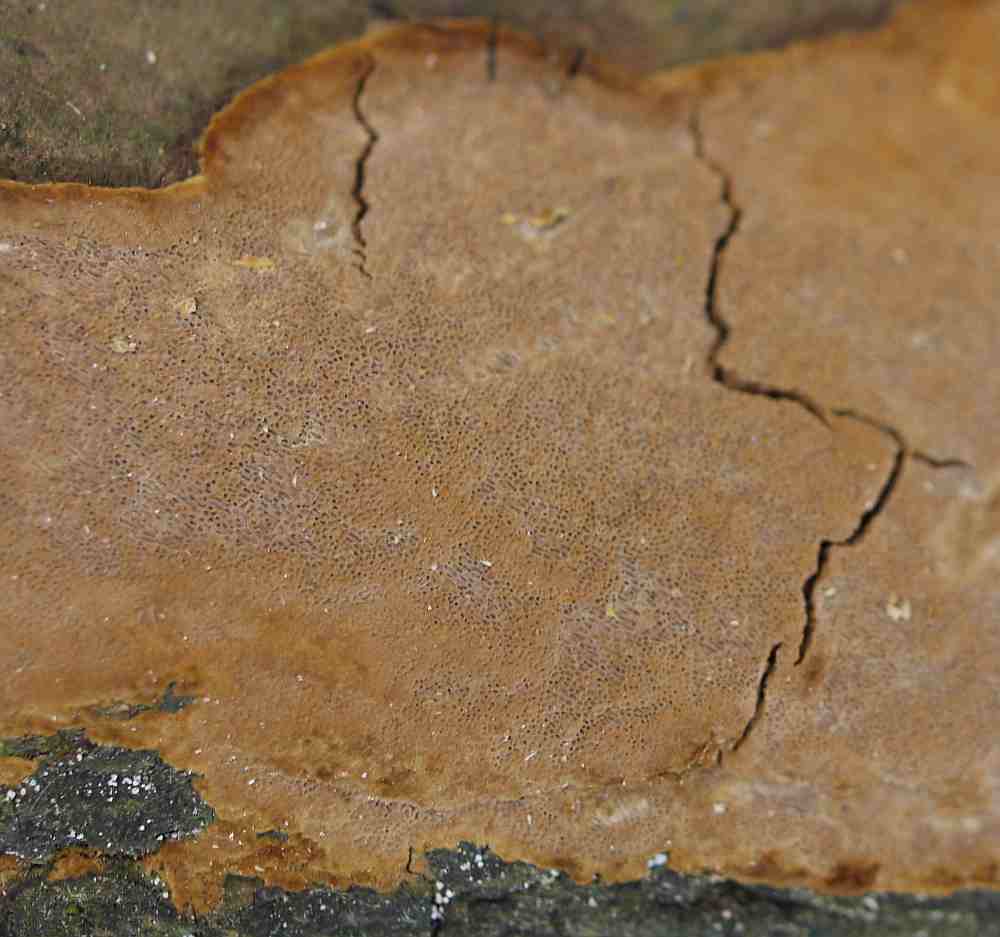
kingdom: Fungi
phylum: Basidiomycota
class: Agaricomycetes
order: Hymenochaetales
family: Hymenochaetaceae
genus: Fuscoporia
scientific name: Fuscoporia ferruginosa
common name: rustbrun ildporesvamp
